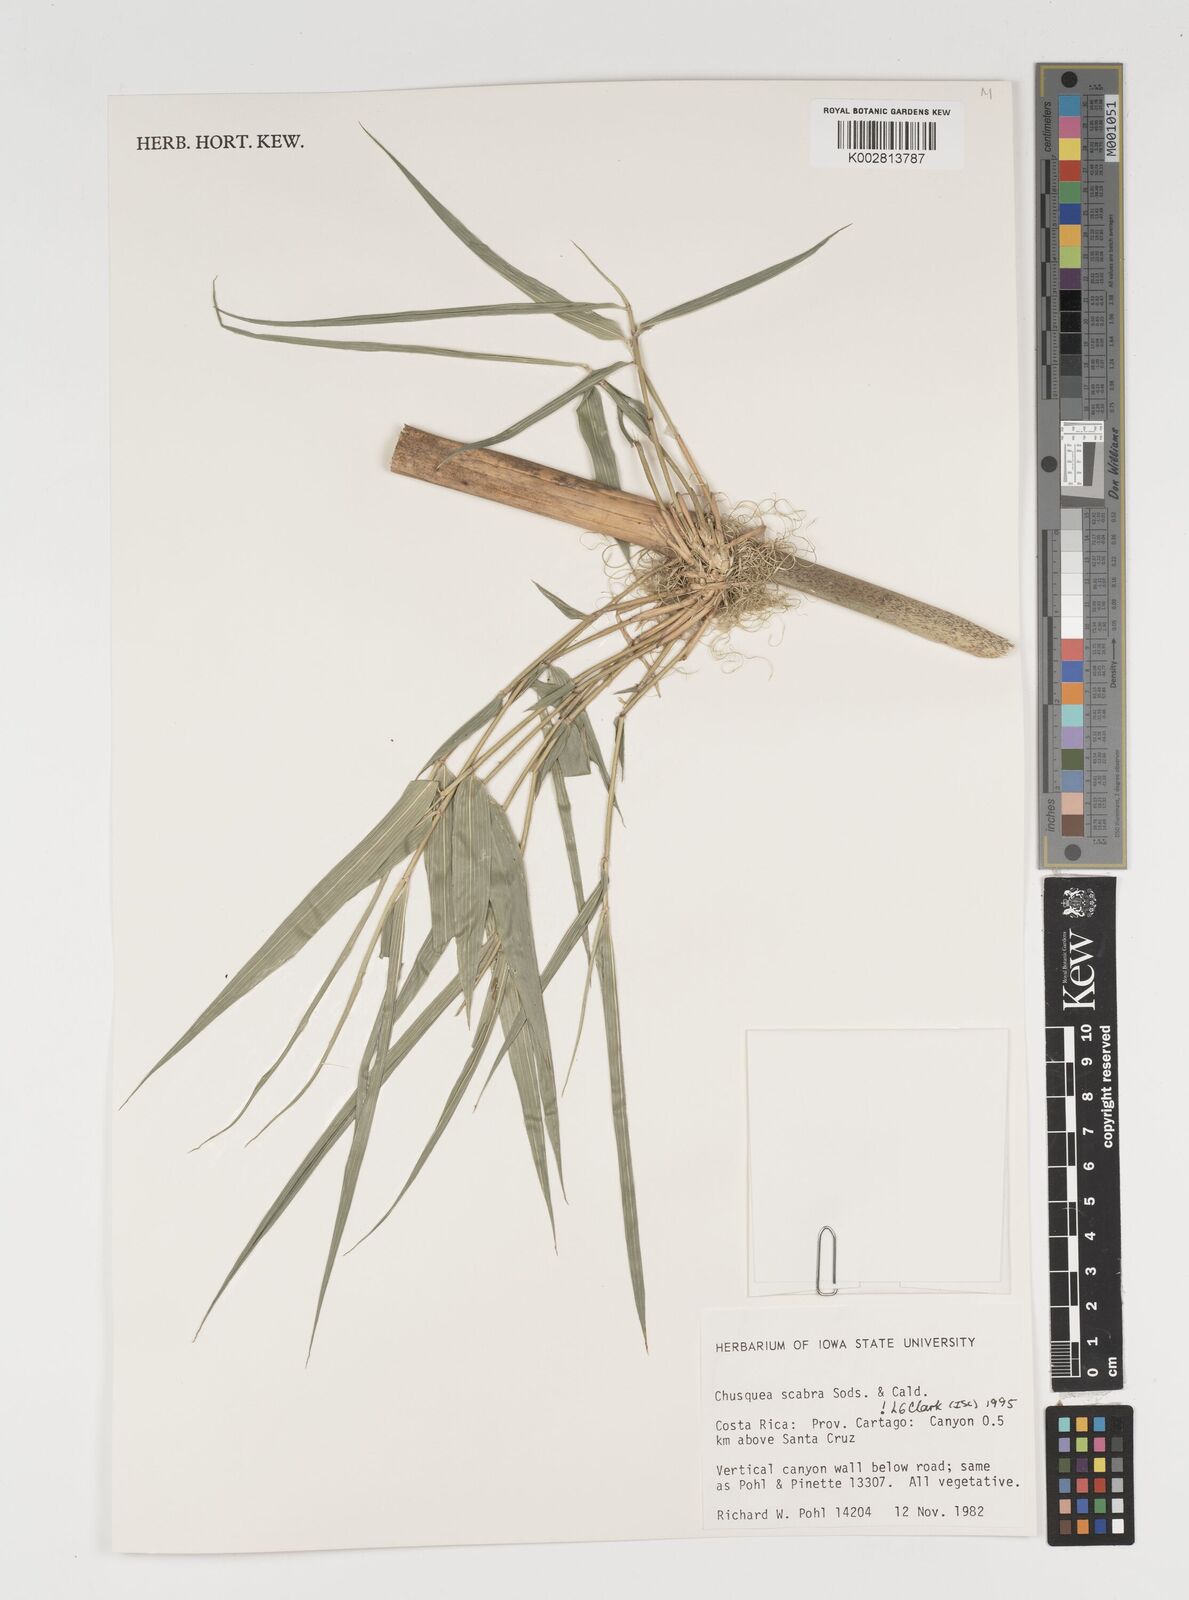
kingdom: Plantae
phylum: Tracheophyta
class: Liliopsida
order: Poales
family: Poaceae
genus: Chusquea
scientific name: Chusquea scabra
